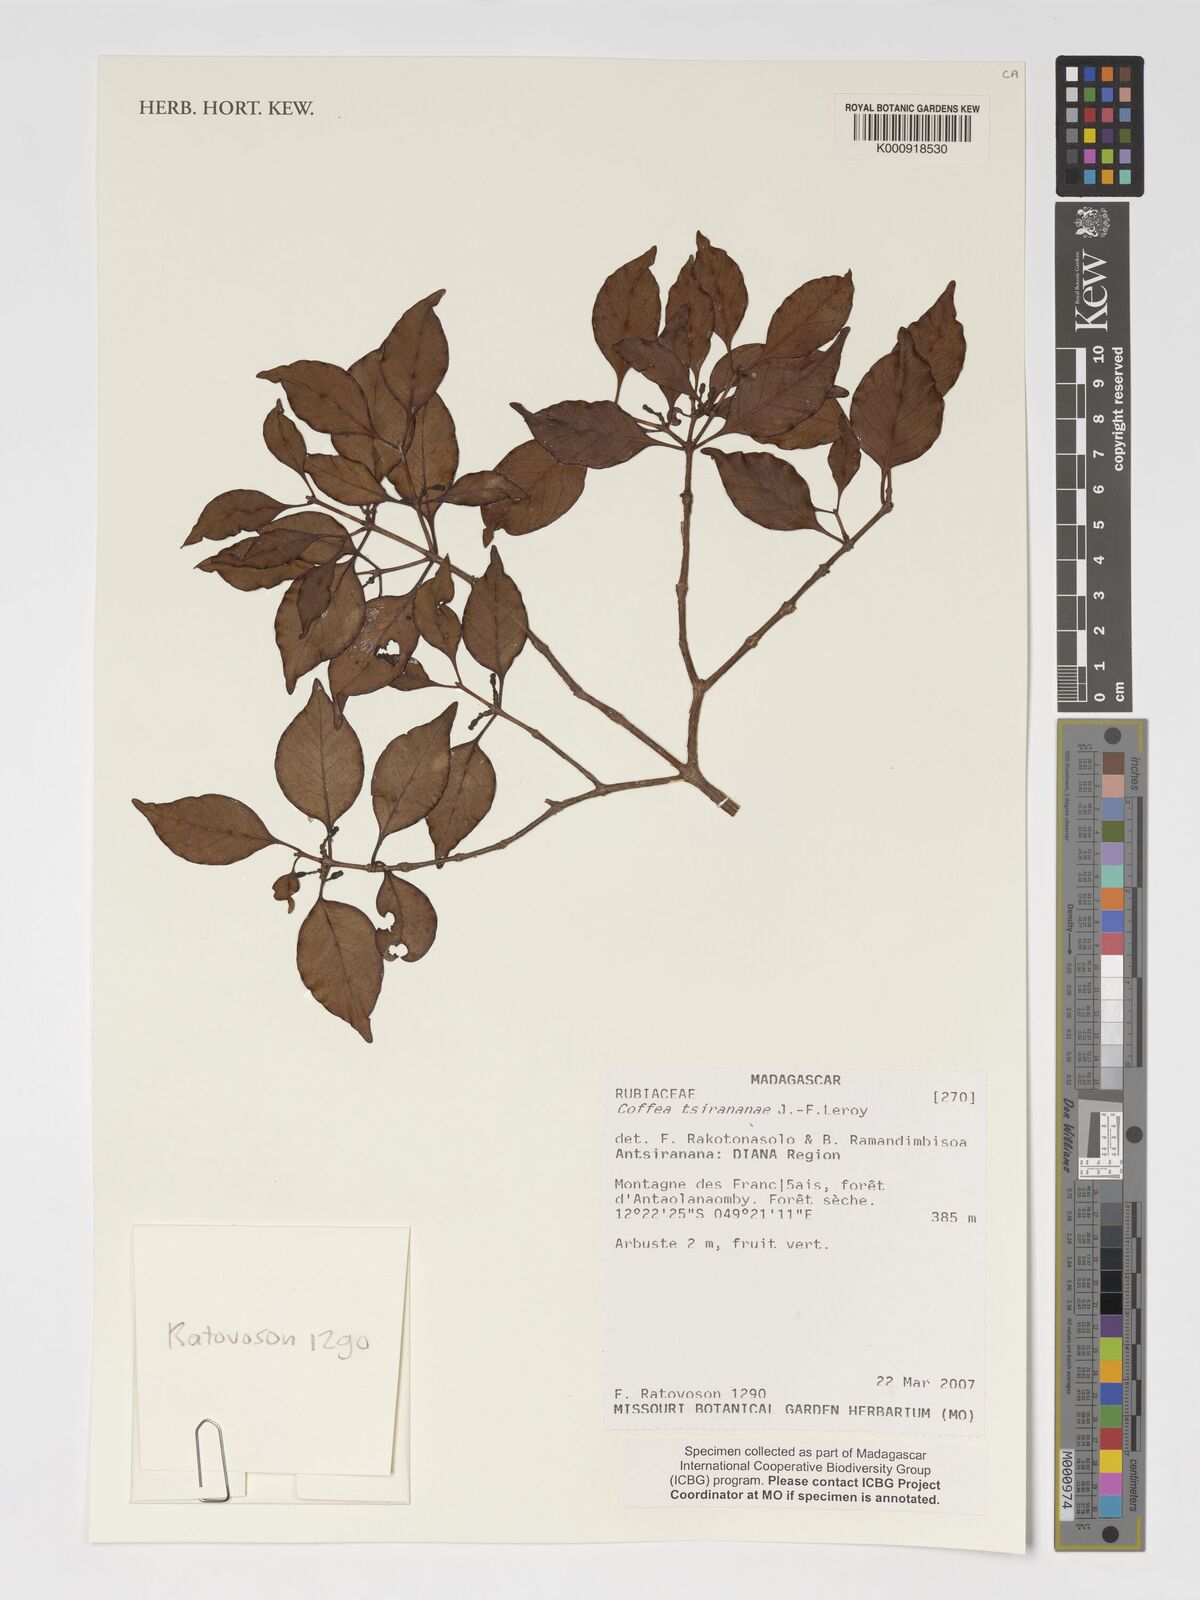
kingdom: Plantae
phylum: Tracheophyta
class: Magnoliopsida
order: Gentianales
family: Rubiaceae
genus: Coffea
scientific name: Coffea tsirananae
